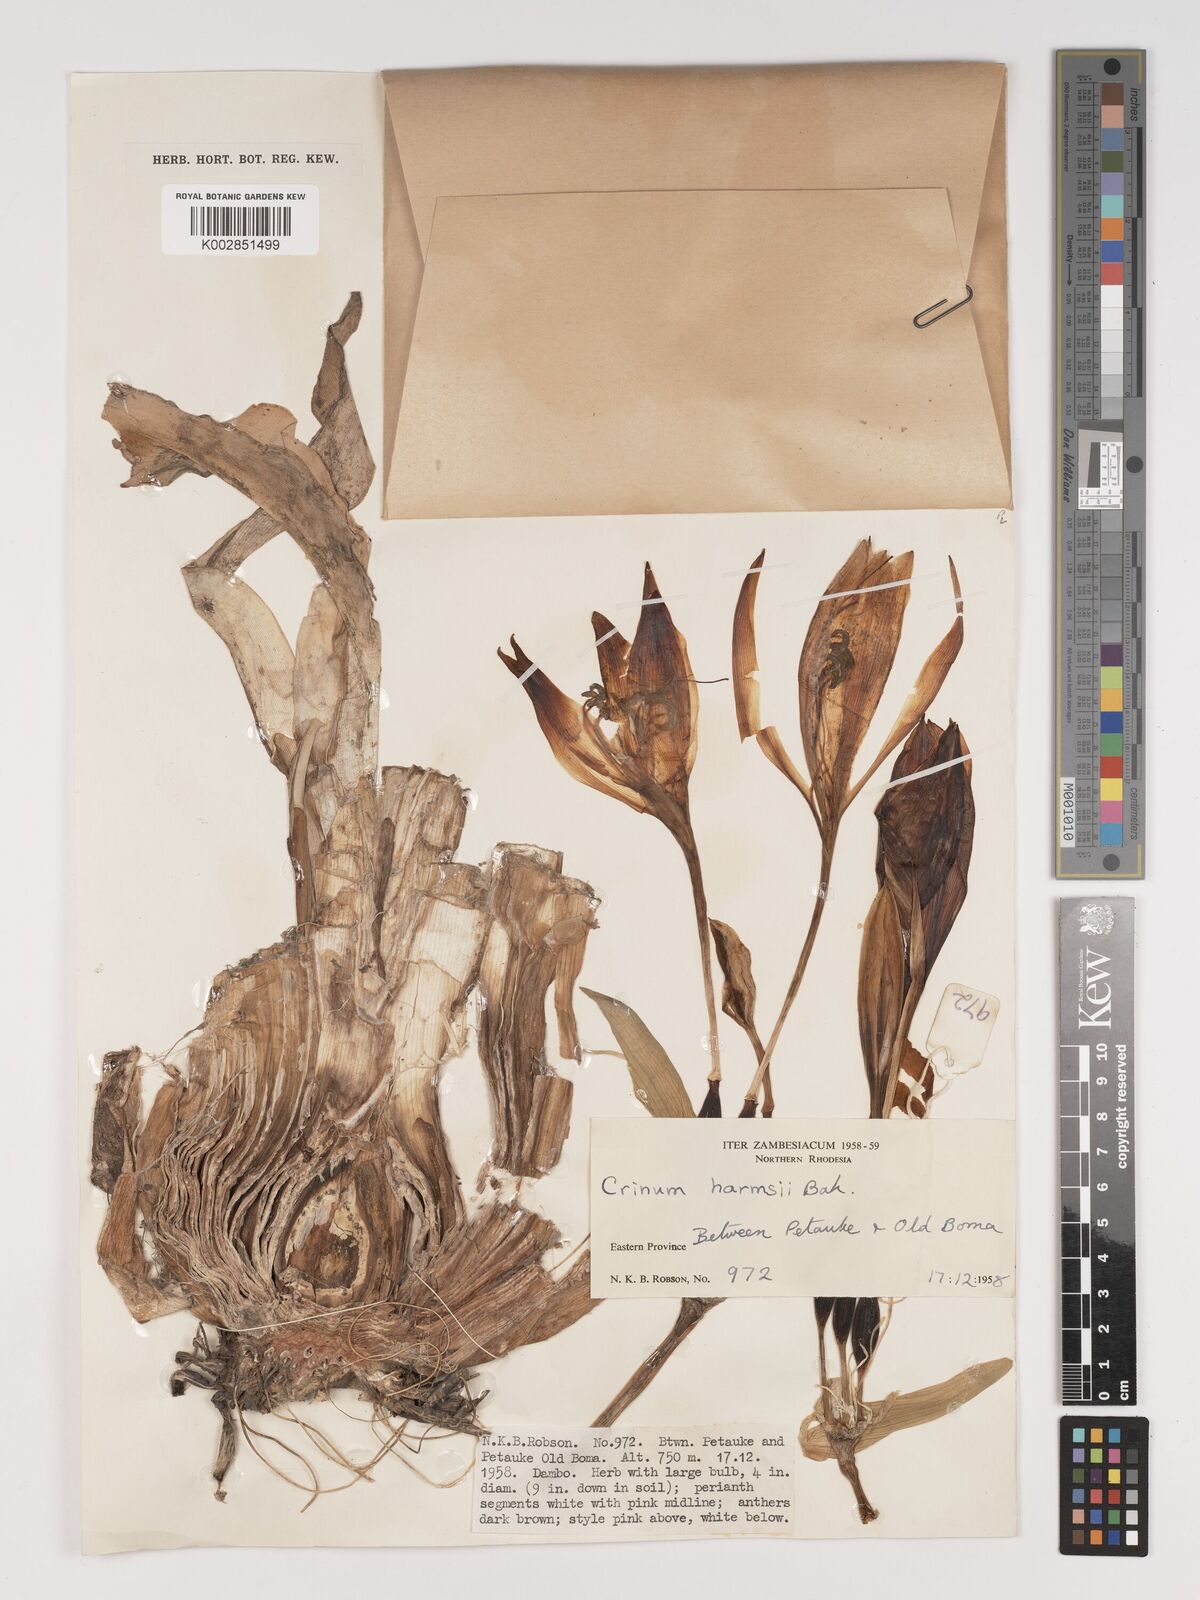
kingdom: Plantae
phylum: Tracheophyta
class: Liliopsida
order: Asparagales
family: Amaryllidaceae
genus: Crinum
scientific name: Crinum stuhlmannii
